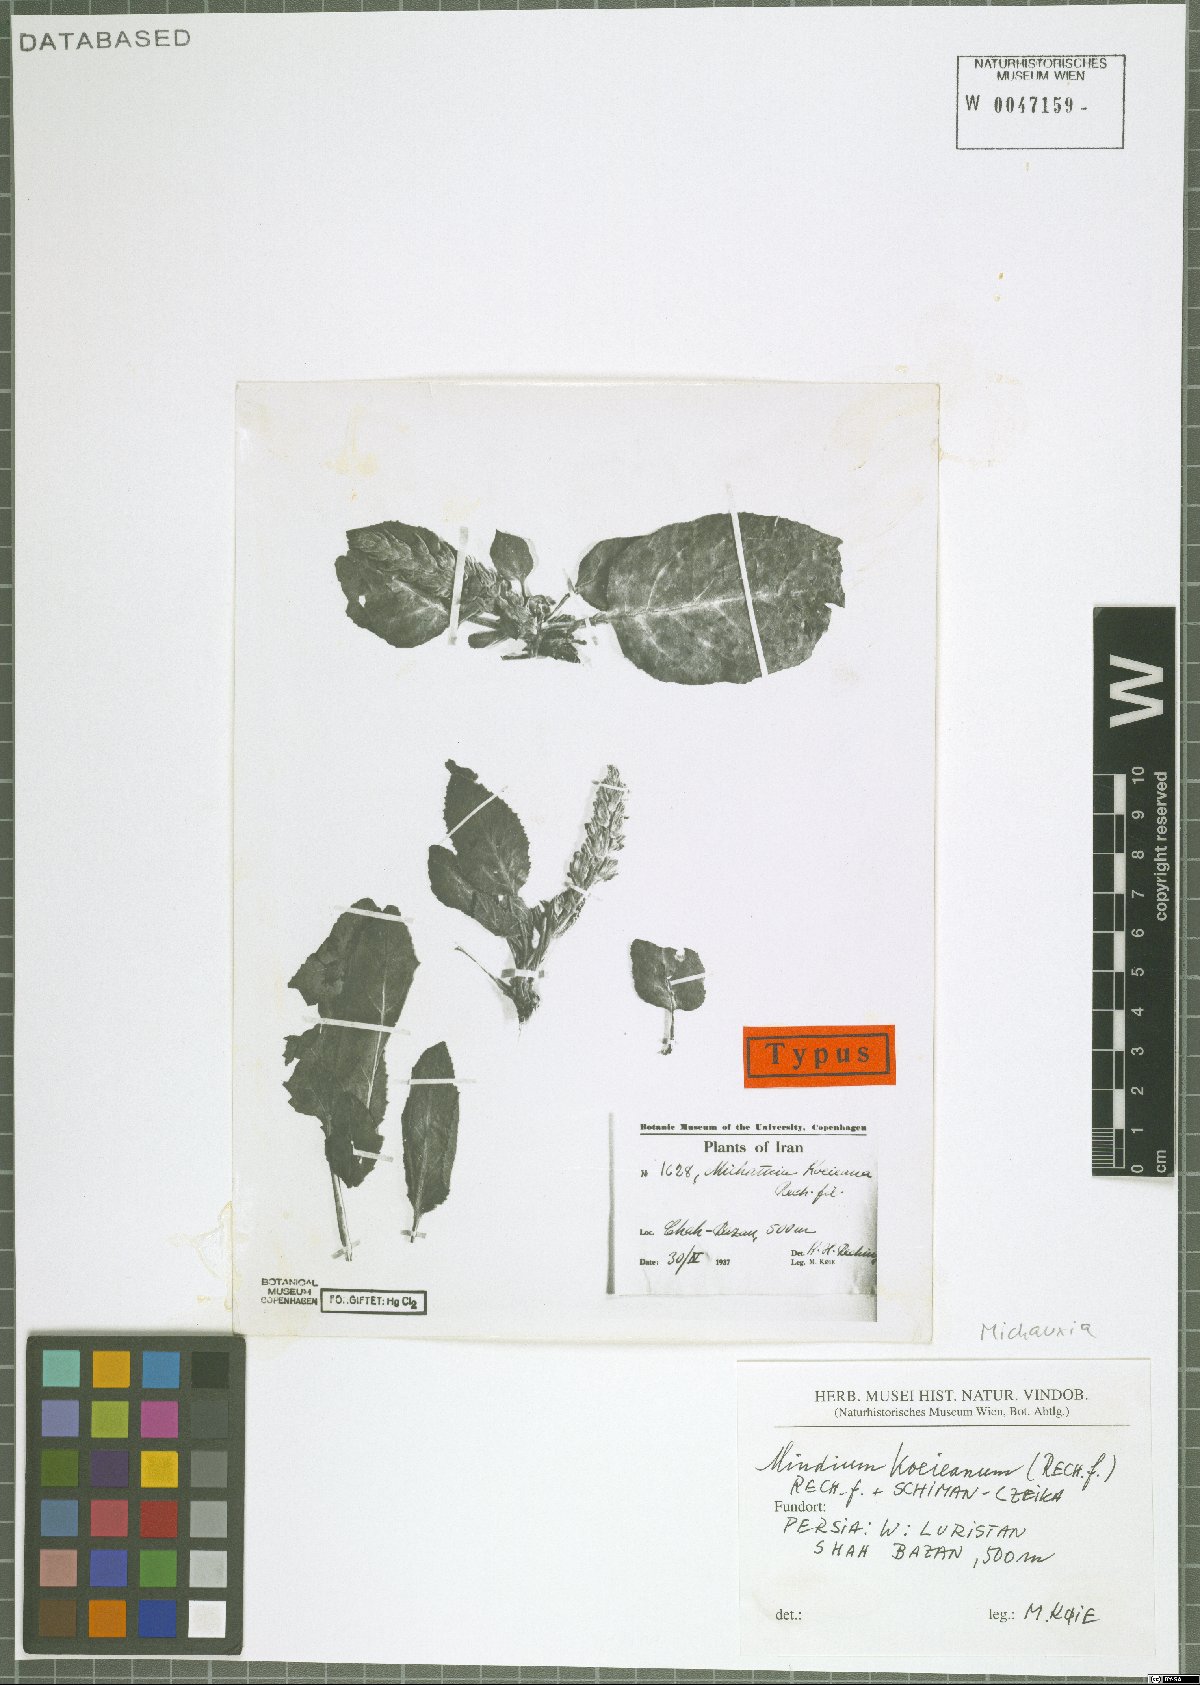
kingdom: Plantae
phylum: Tracheophyta
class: Magnoliopsida
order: Asterales
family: Campanulaceae
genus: Michauxia
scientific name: Michauxia koeieana
